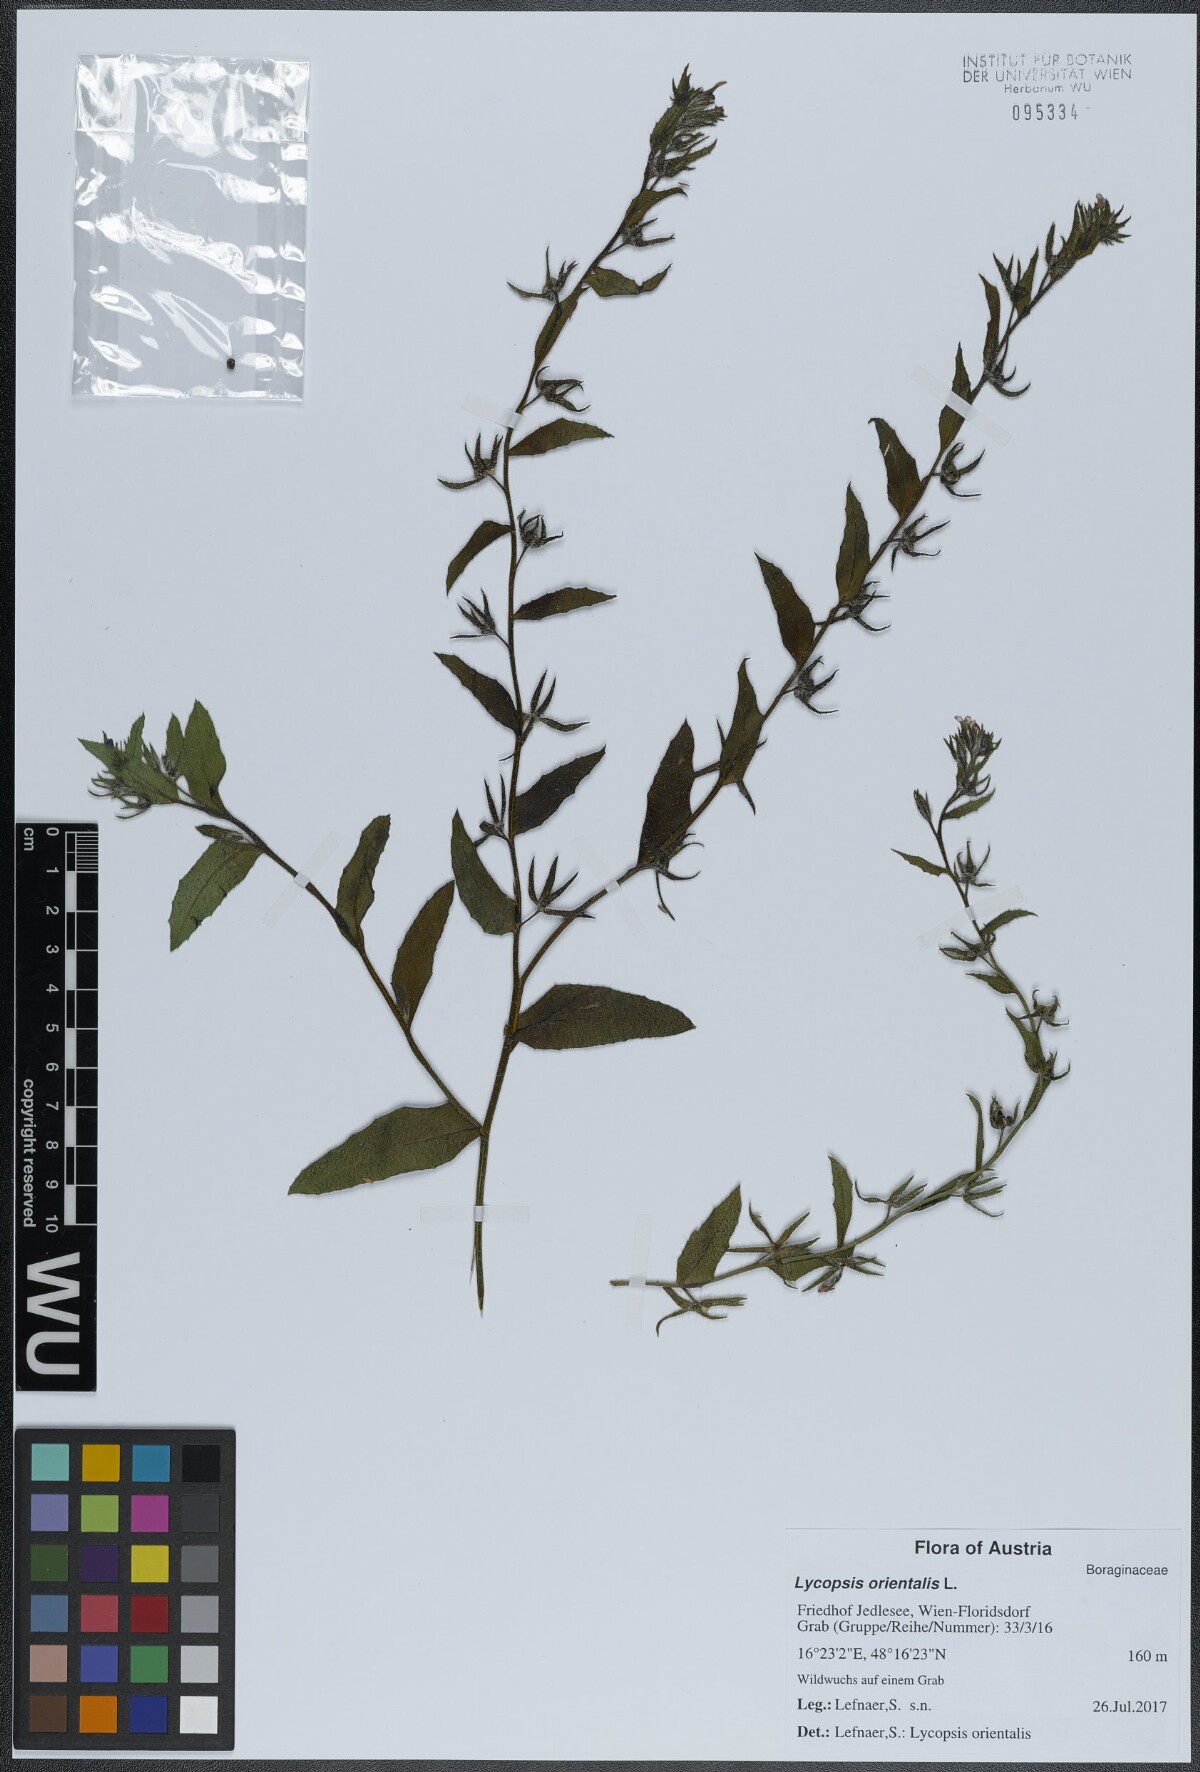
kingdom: Plantae
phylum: Tracheophyta
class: Magnoliopsida
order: Boraginales
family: Boraginaceae
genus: Lycopsis
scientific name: Lycopsis arvensis
